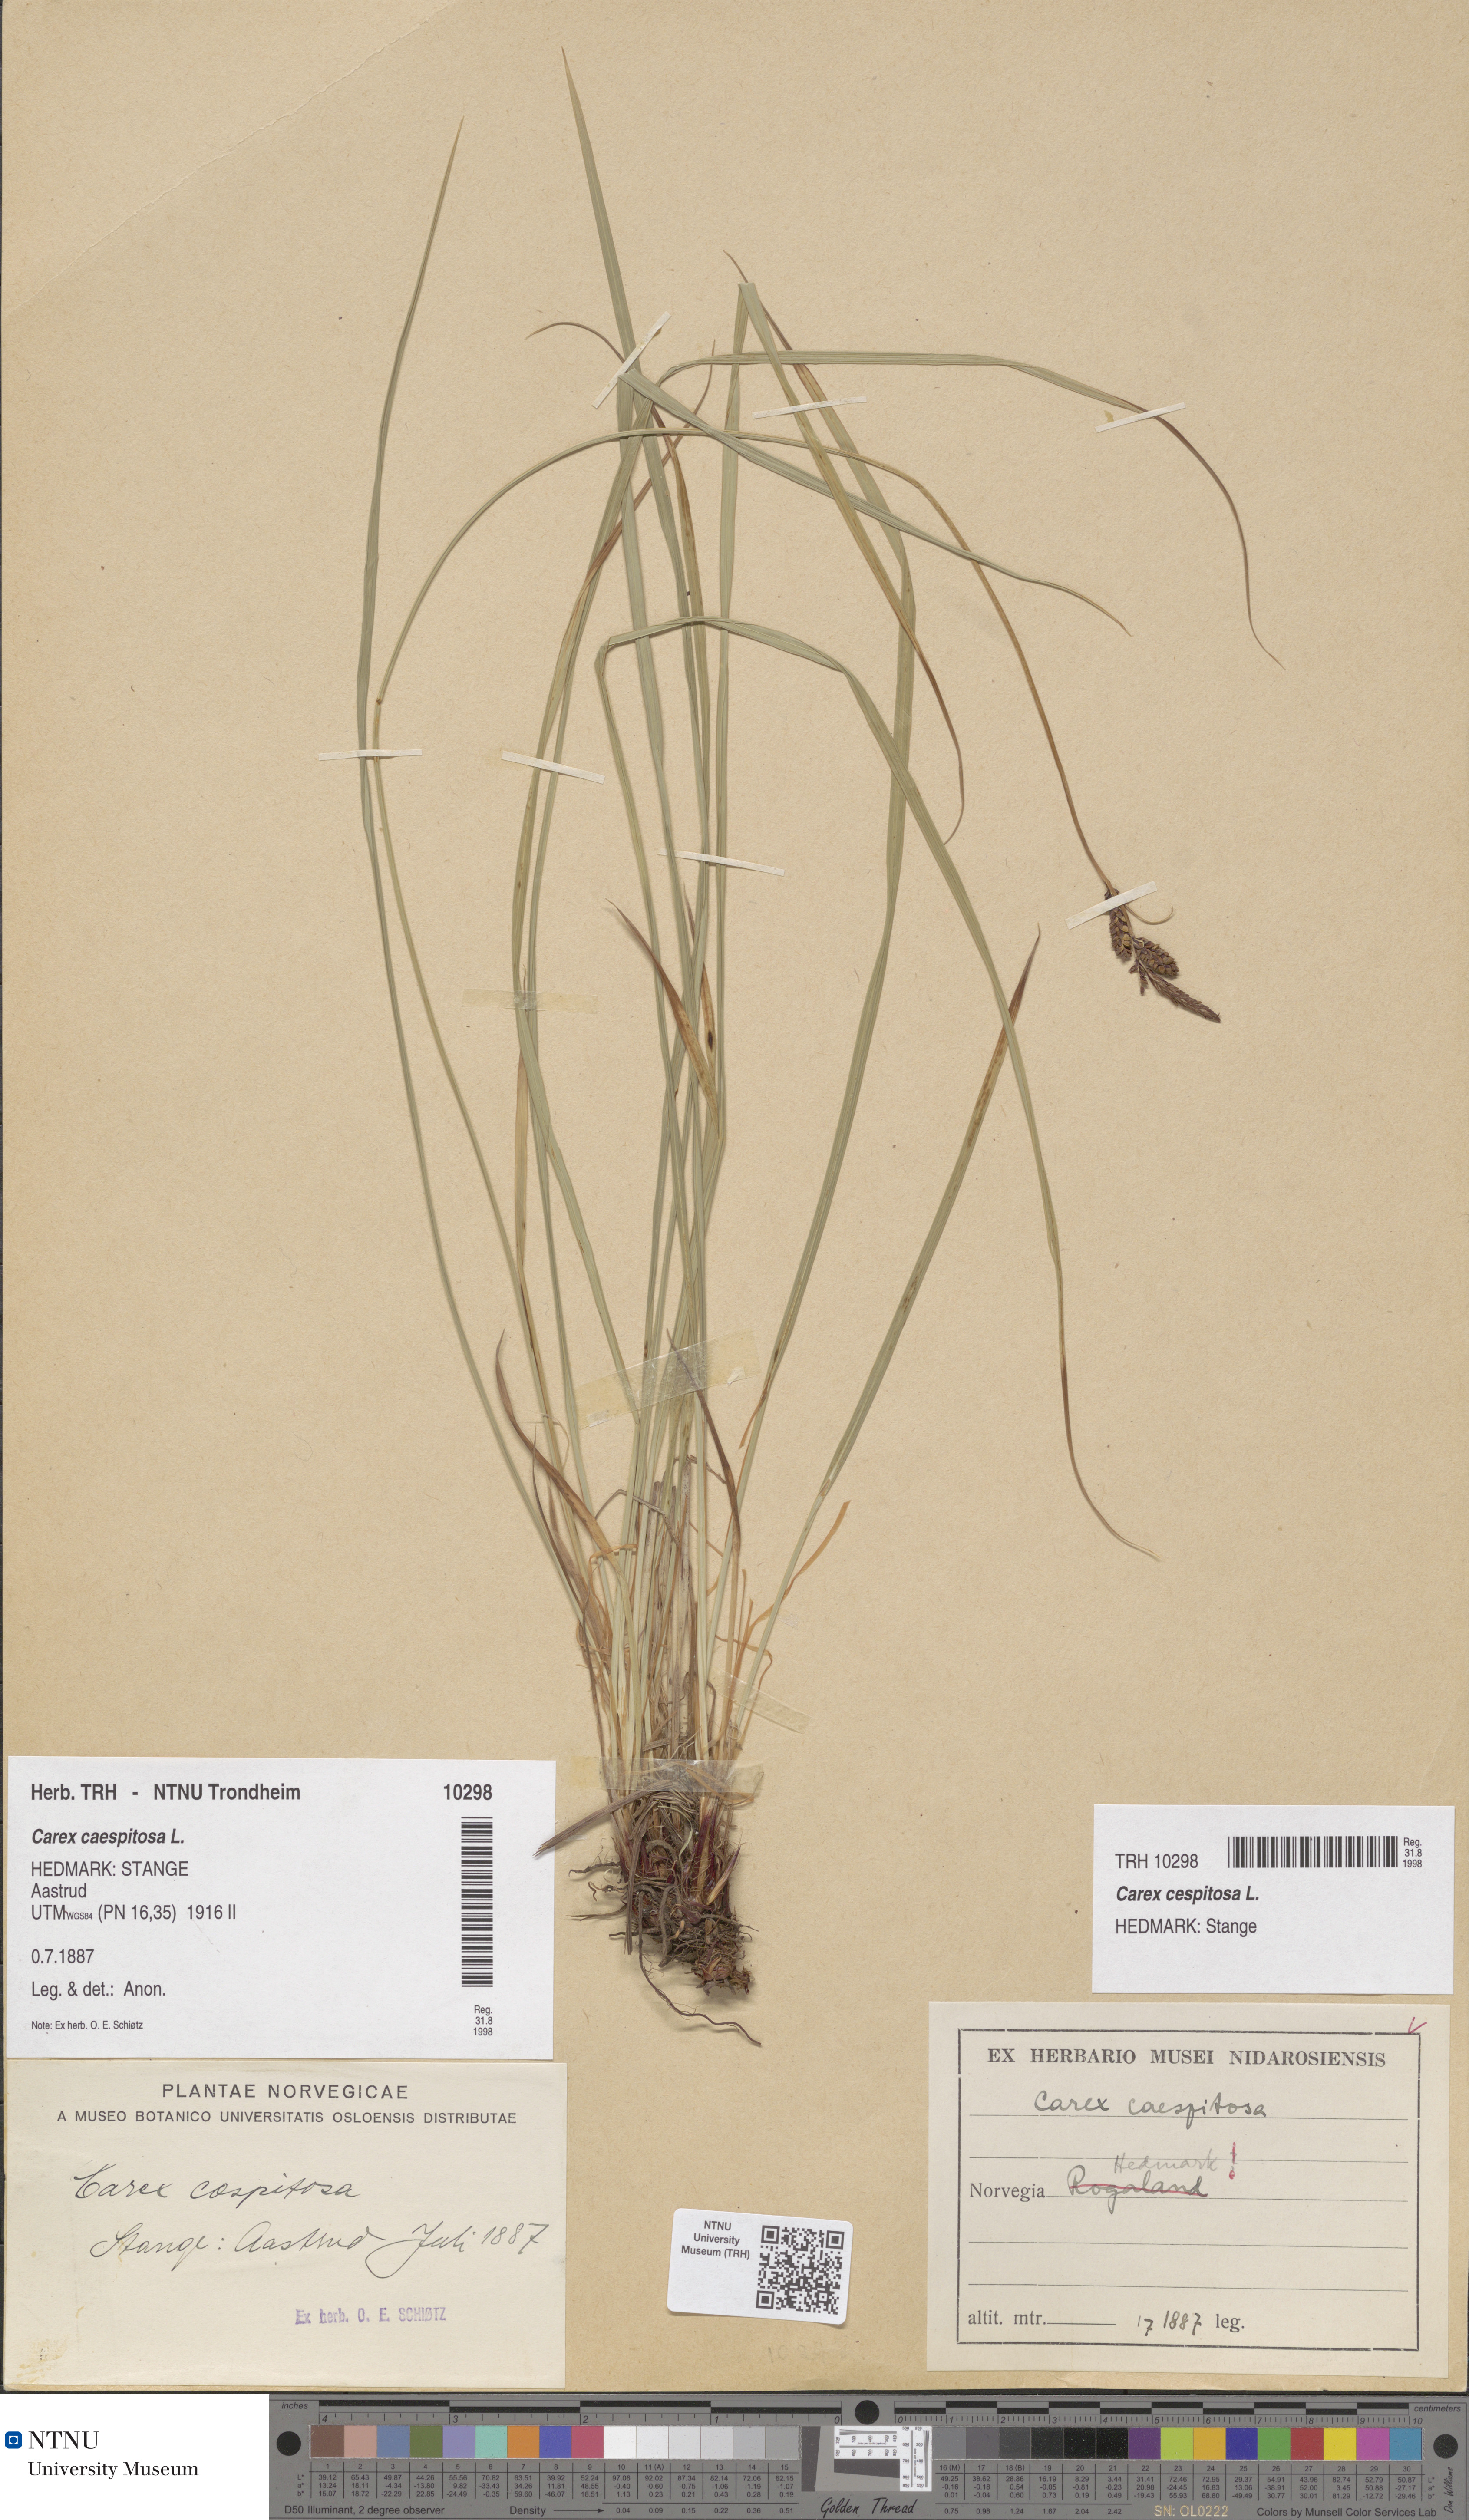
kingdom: Plantae
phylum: Tracheophyta
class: Liliopsida
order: Poales
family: Cyperaceae
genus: Carex
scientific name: Carex cespitosa
